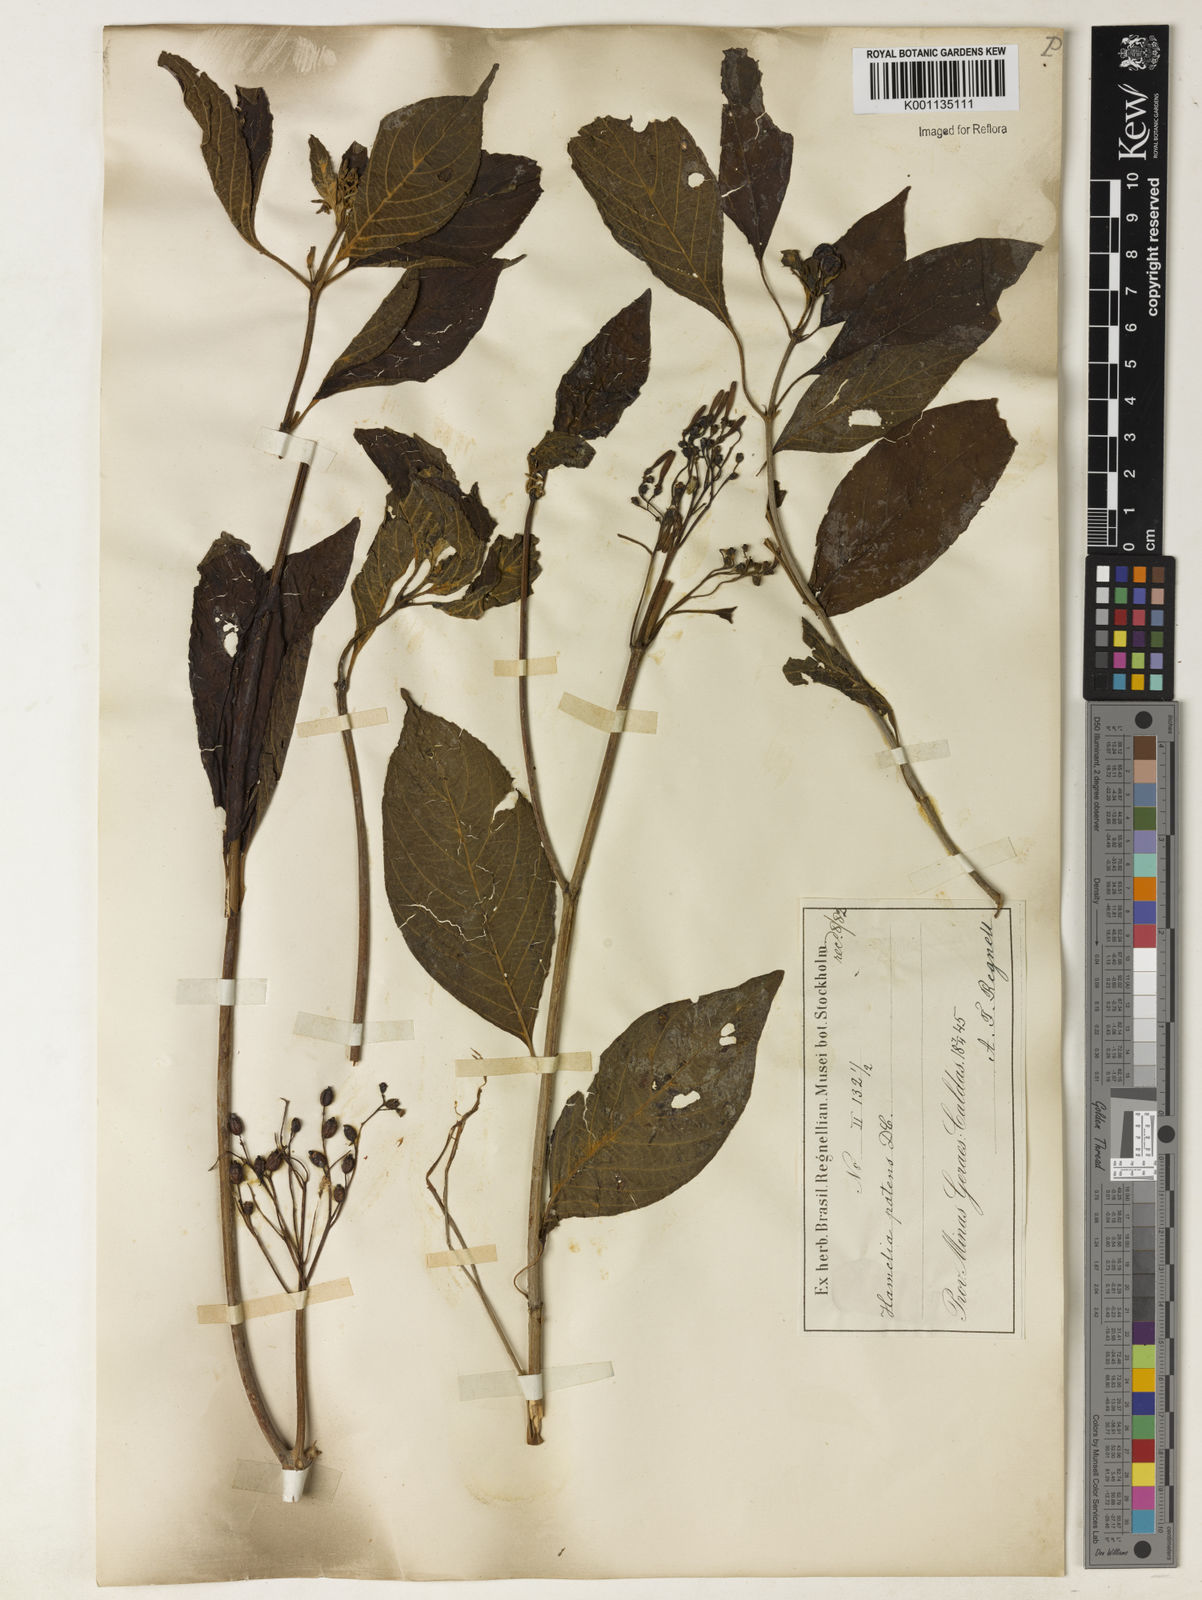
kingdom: Plantae
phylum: Tracheophyta
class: Magnoliopsida
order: Gentianales
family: Rubiaceae
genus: Hamelia
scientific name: Hamelia patens
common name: Redhead
